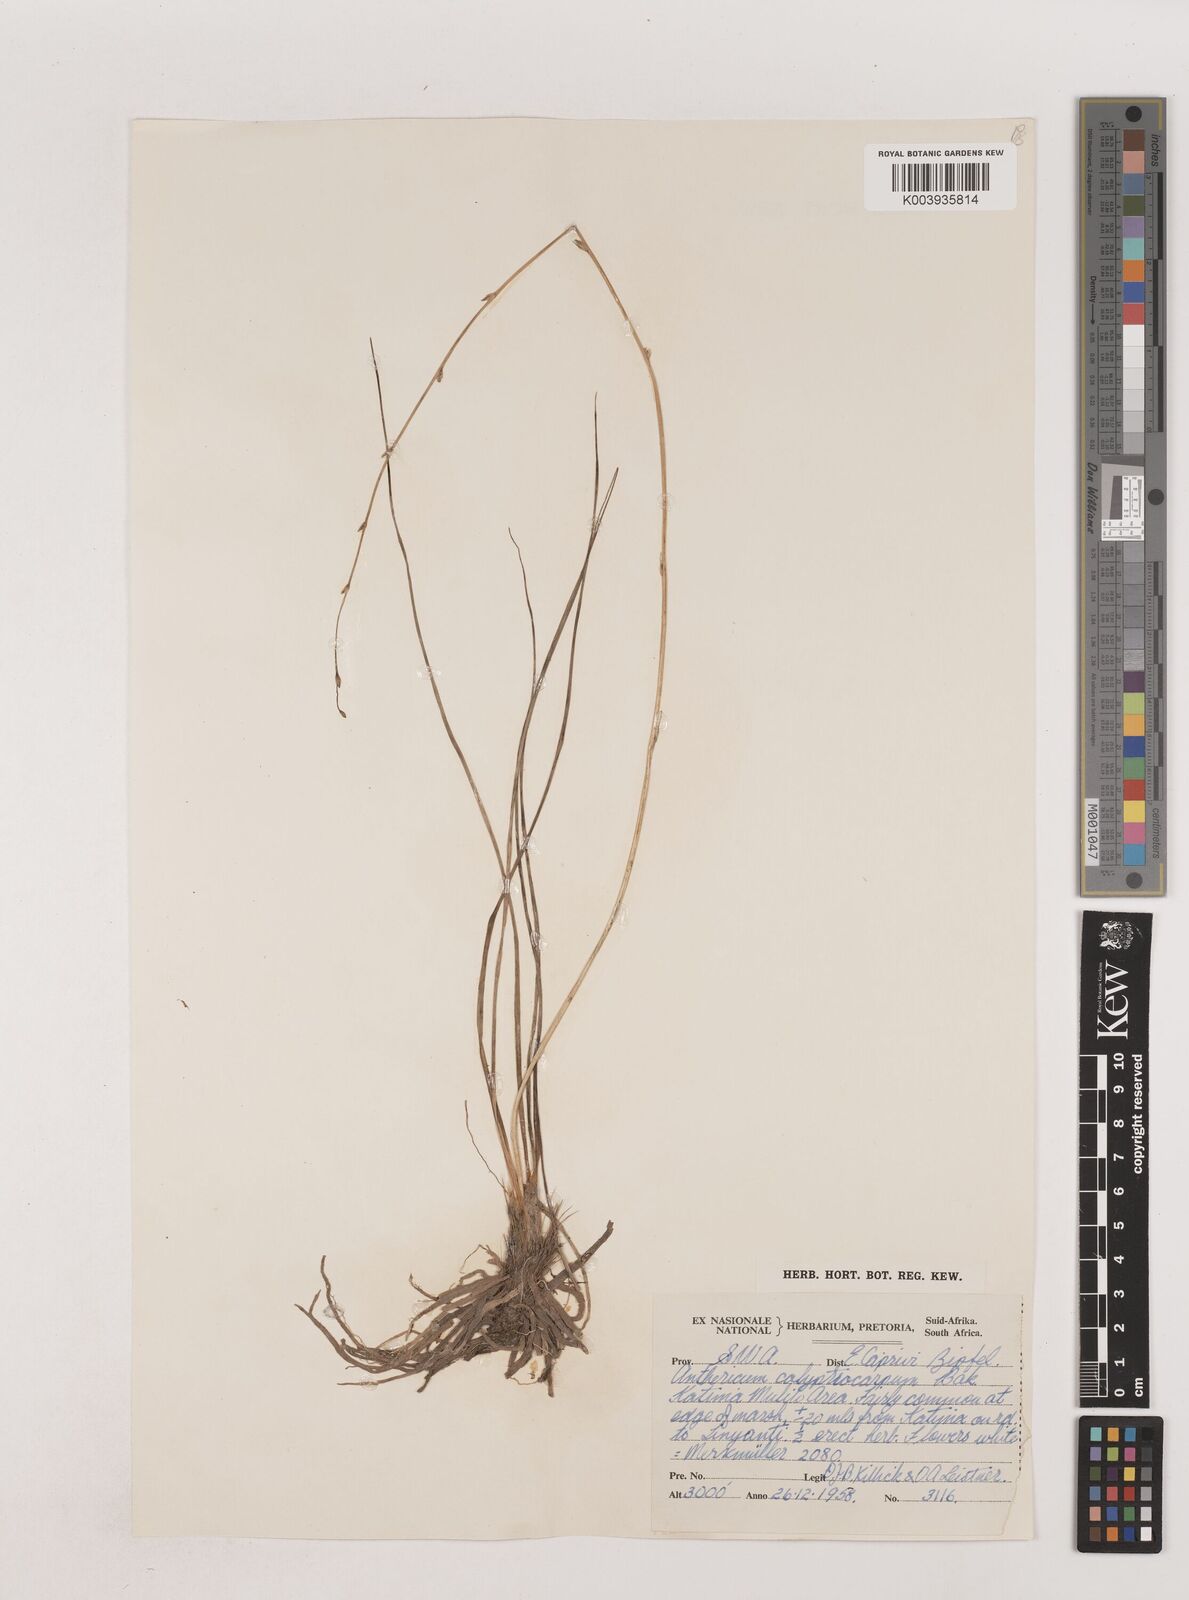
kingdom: Plantae
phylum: Tracheophyta
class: Liliopsida
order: Asparagales
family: Asparagaceae
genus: Chlorophytum
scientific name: Chlorophytum calyptrocarpum
